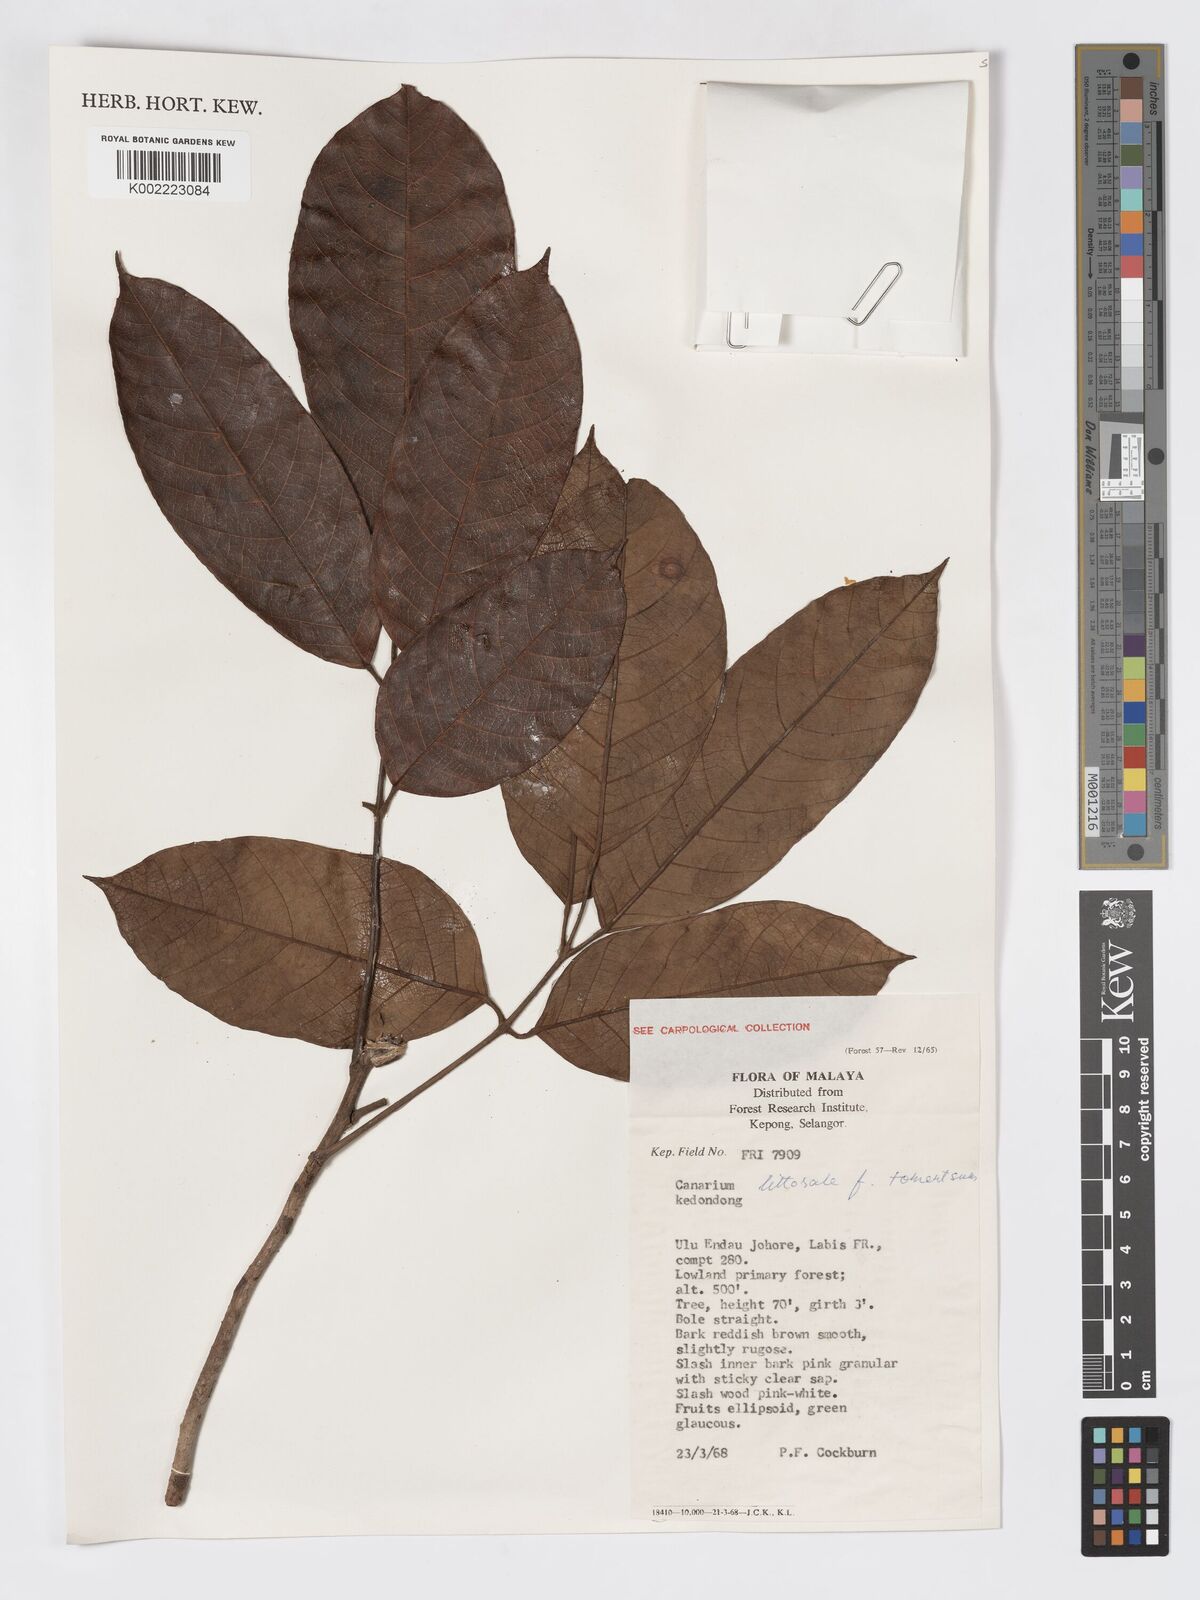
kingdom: Plantae
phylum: Tracheophyta
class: Magnoliopsida
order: Sapindales
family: Burseraceae
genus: Canarium
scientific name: Canarium littorale
